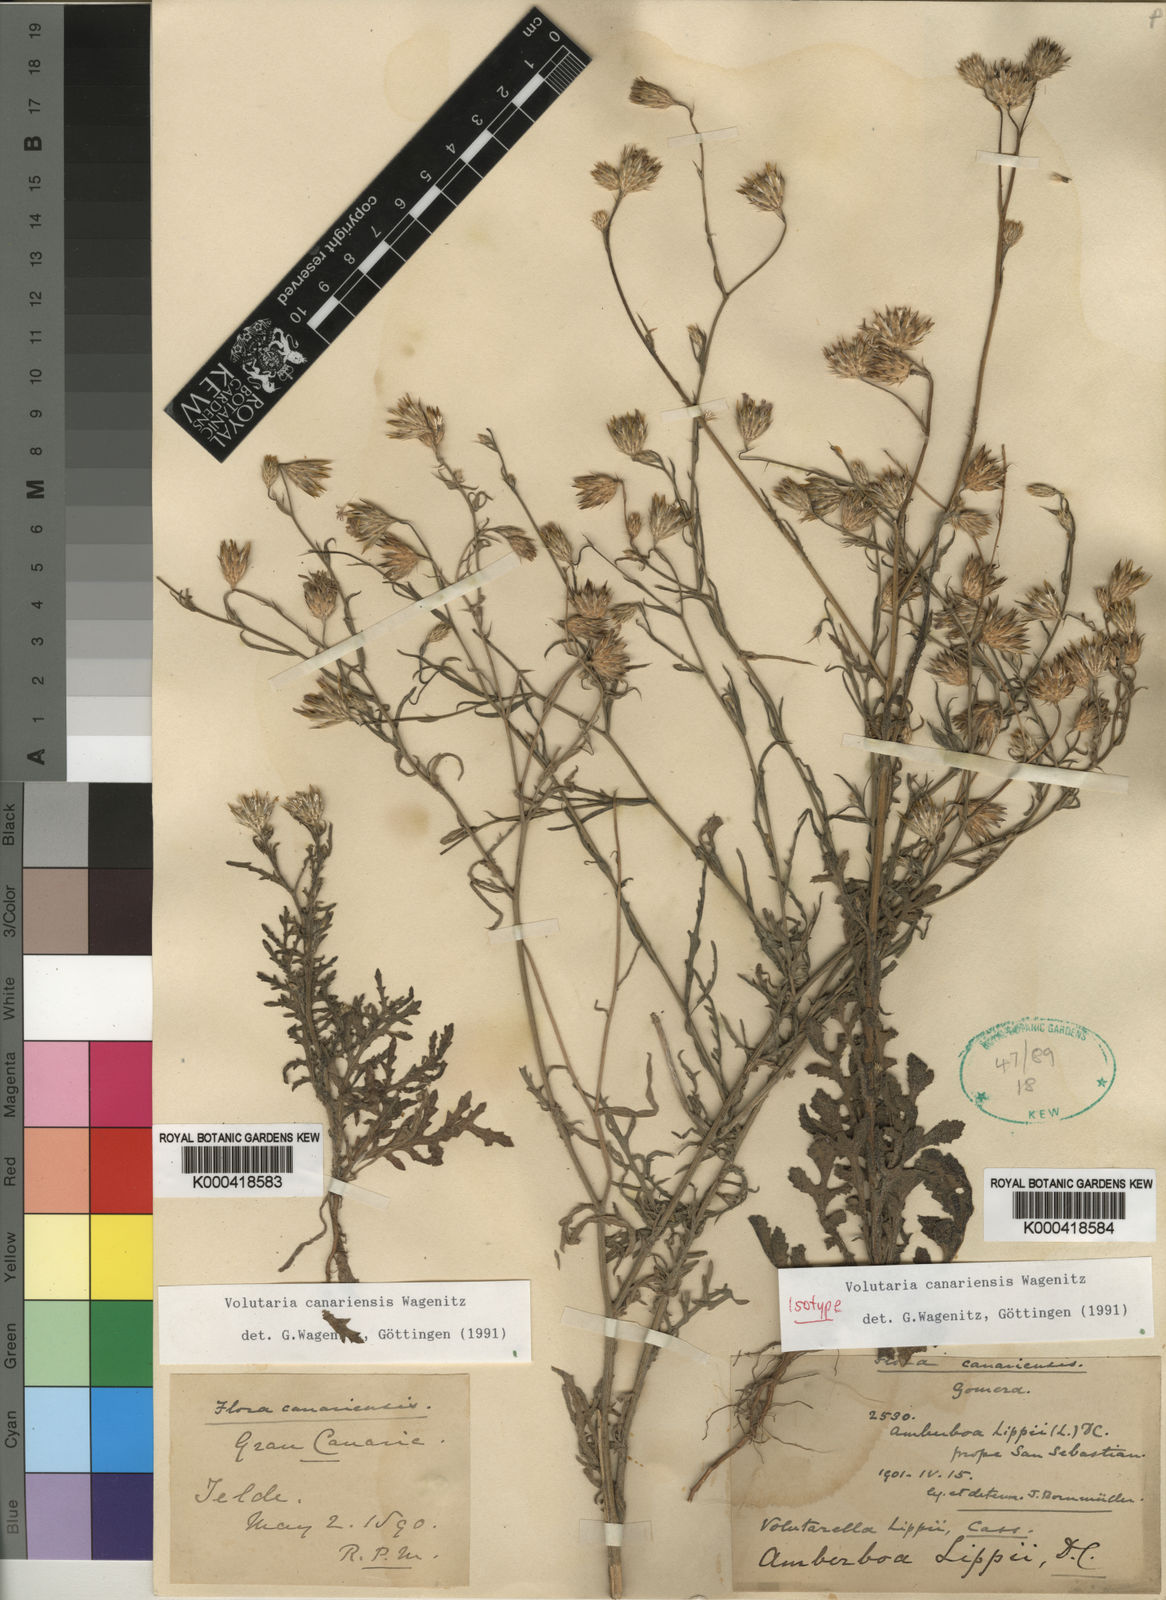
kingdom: Plantae
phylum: Tracheophyta
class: Magnoliopsida
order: Asterales
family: Asteraceae
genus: Volutaria
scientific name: Volutaria canariensis
